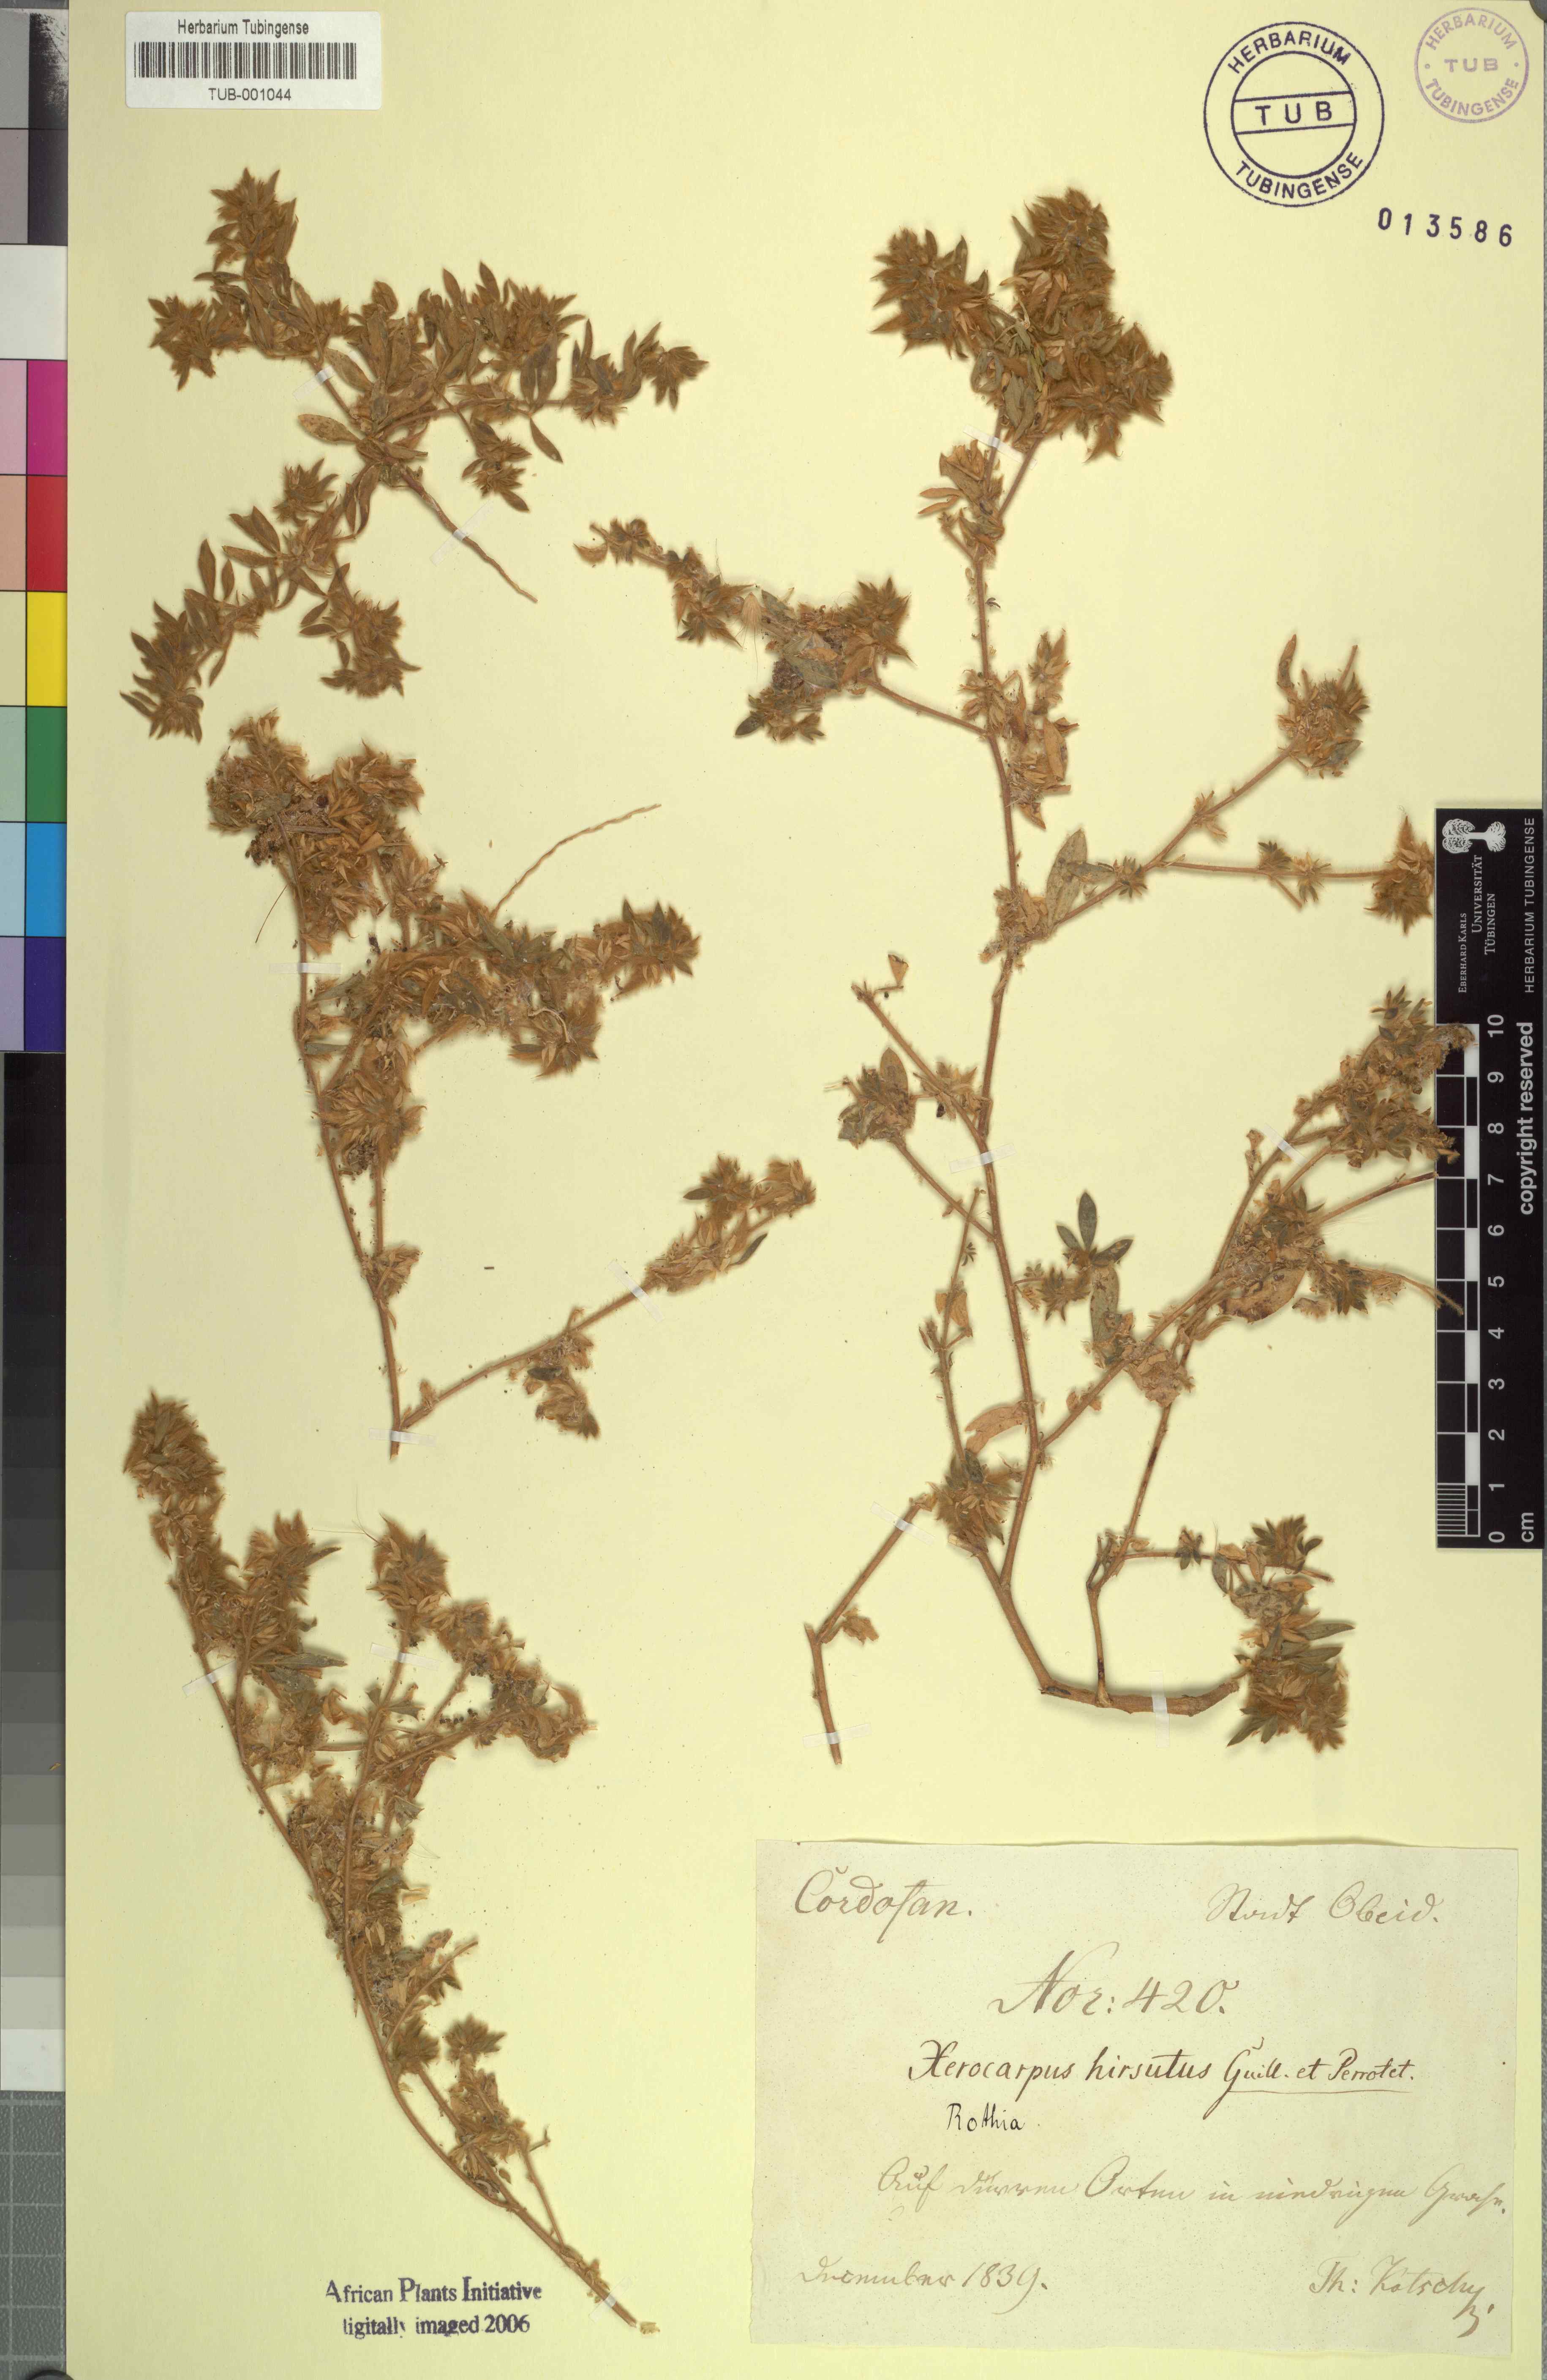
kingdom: Plantae
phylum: Tracheophyta
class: Magnoliopsida
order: Fabales
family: Fabaceae
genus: Rothia
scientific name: Rothia hirsuta
